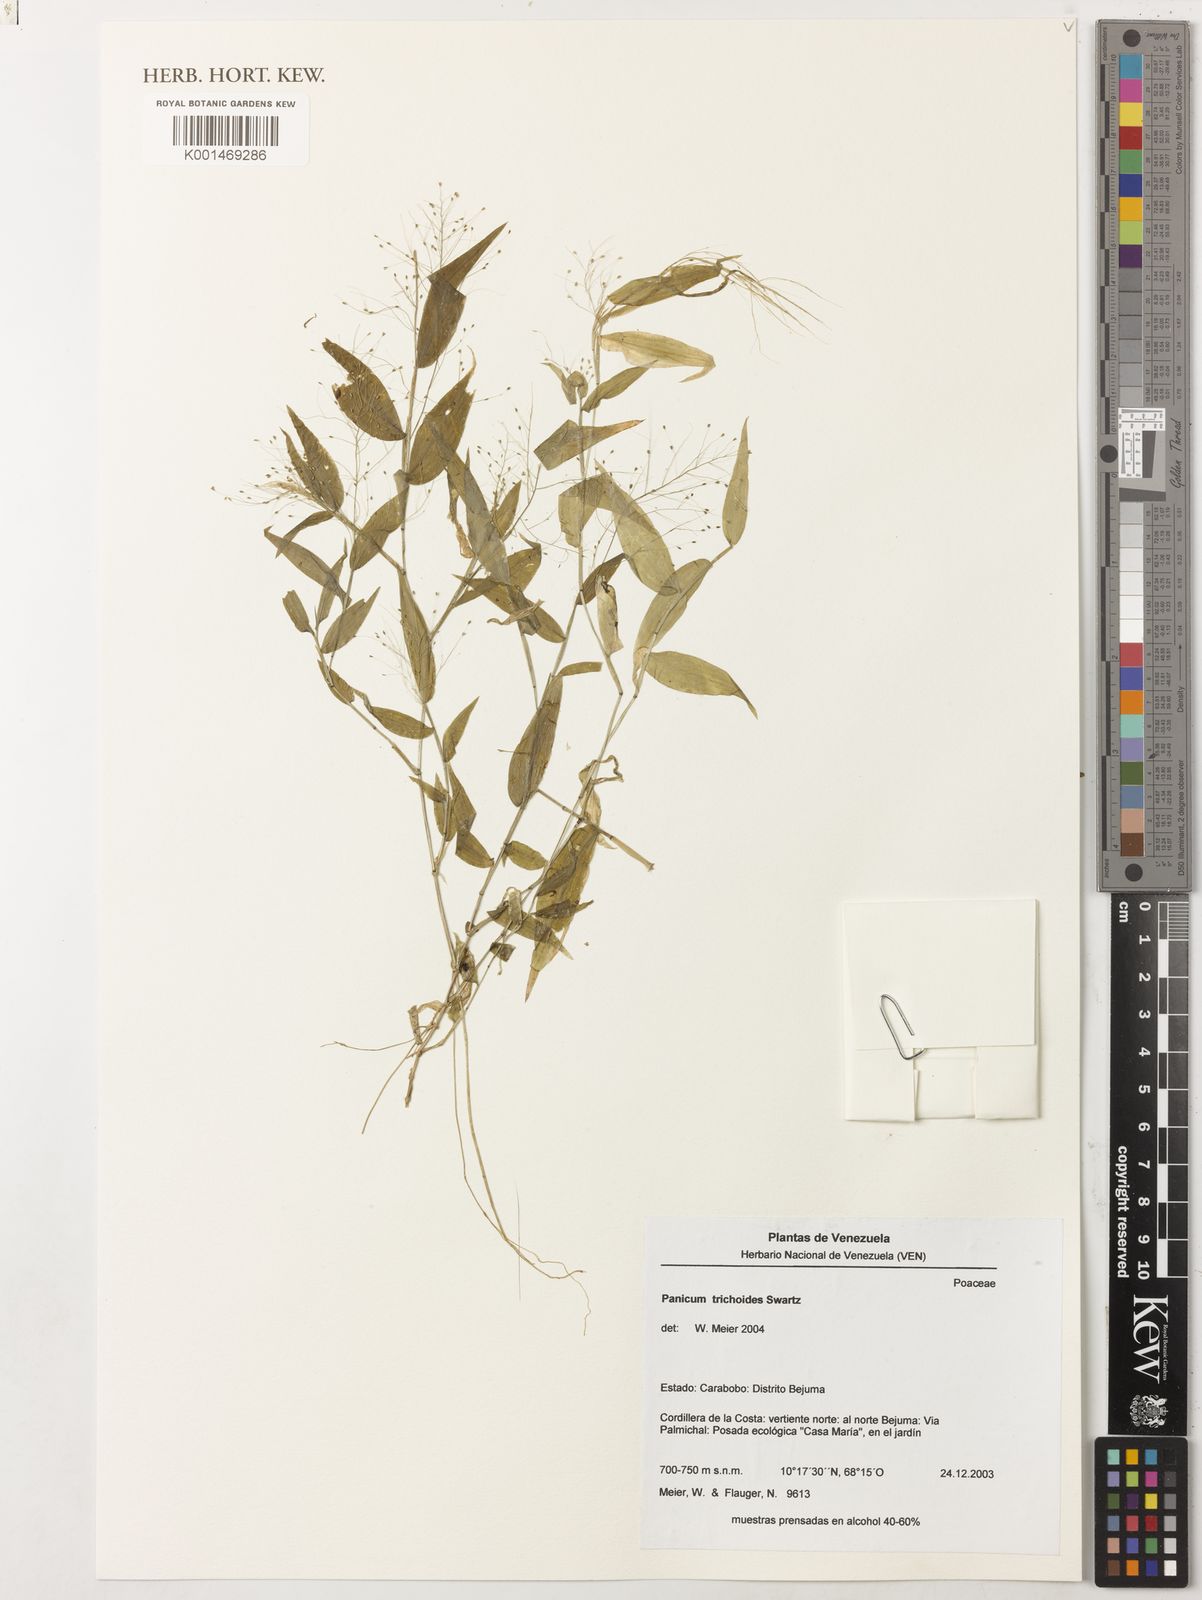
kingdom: Plantae
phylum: Tracheophyta
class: Liliopsida
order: Poales
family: Poaceae
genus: Panicum
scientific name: Panicum trichoides
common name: Tickle grass
